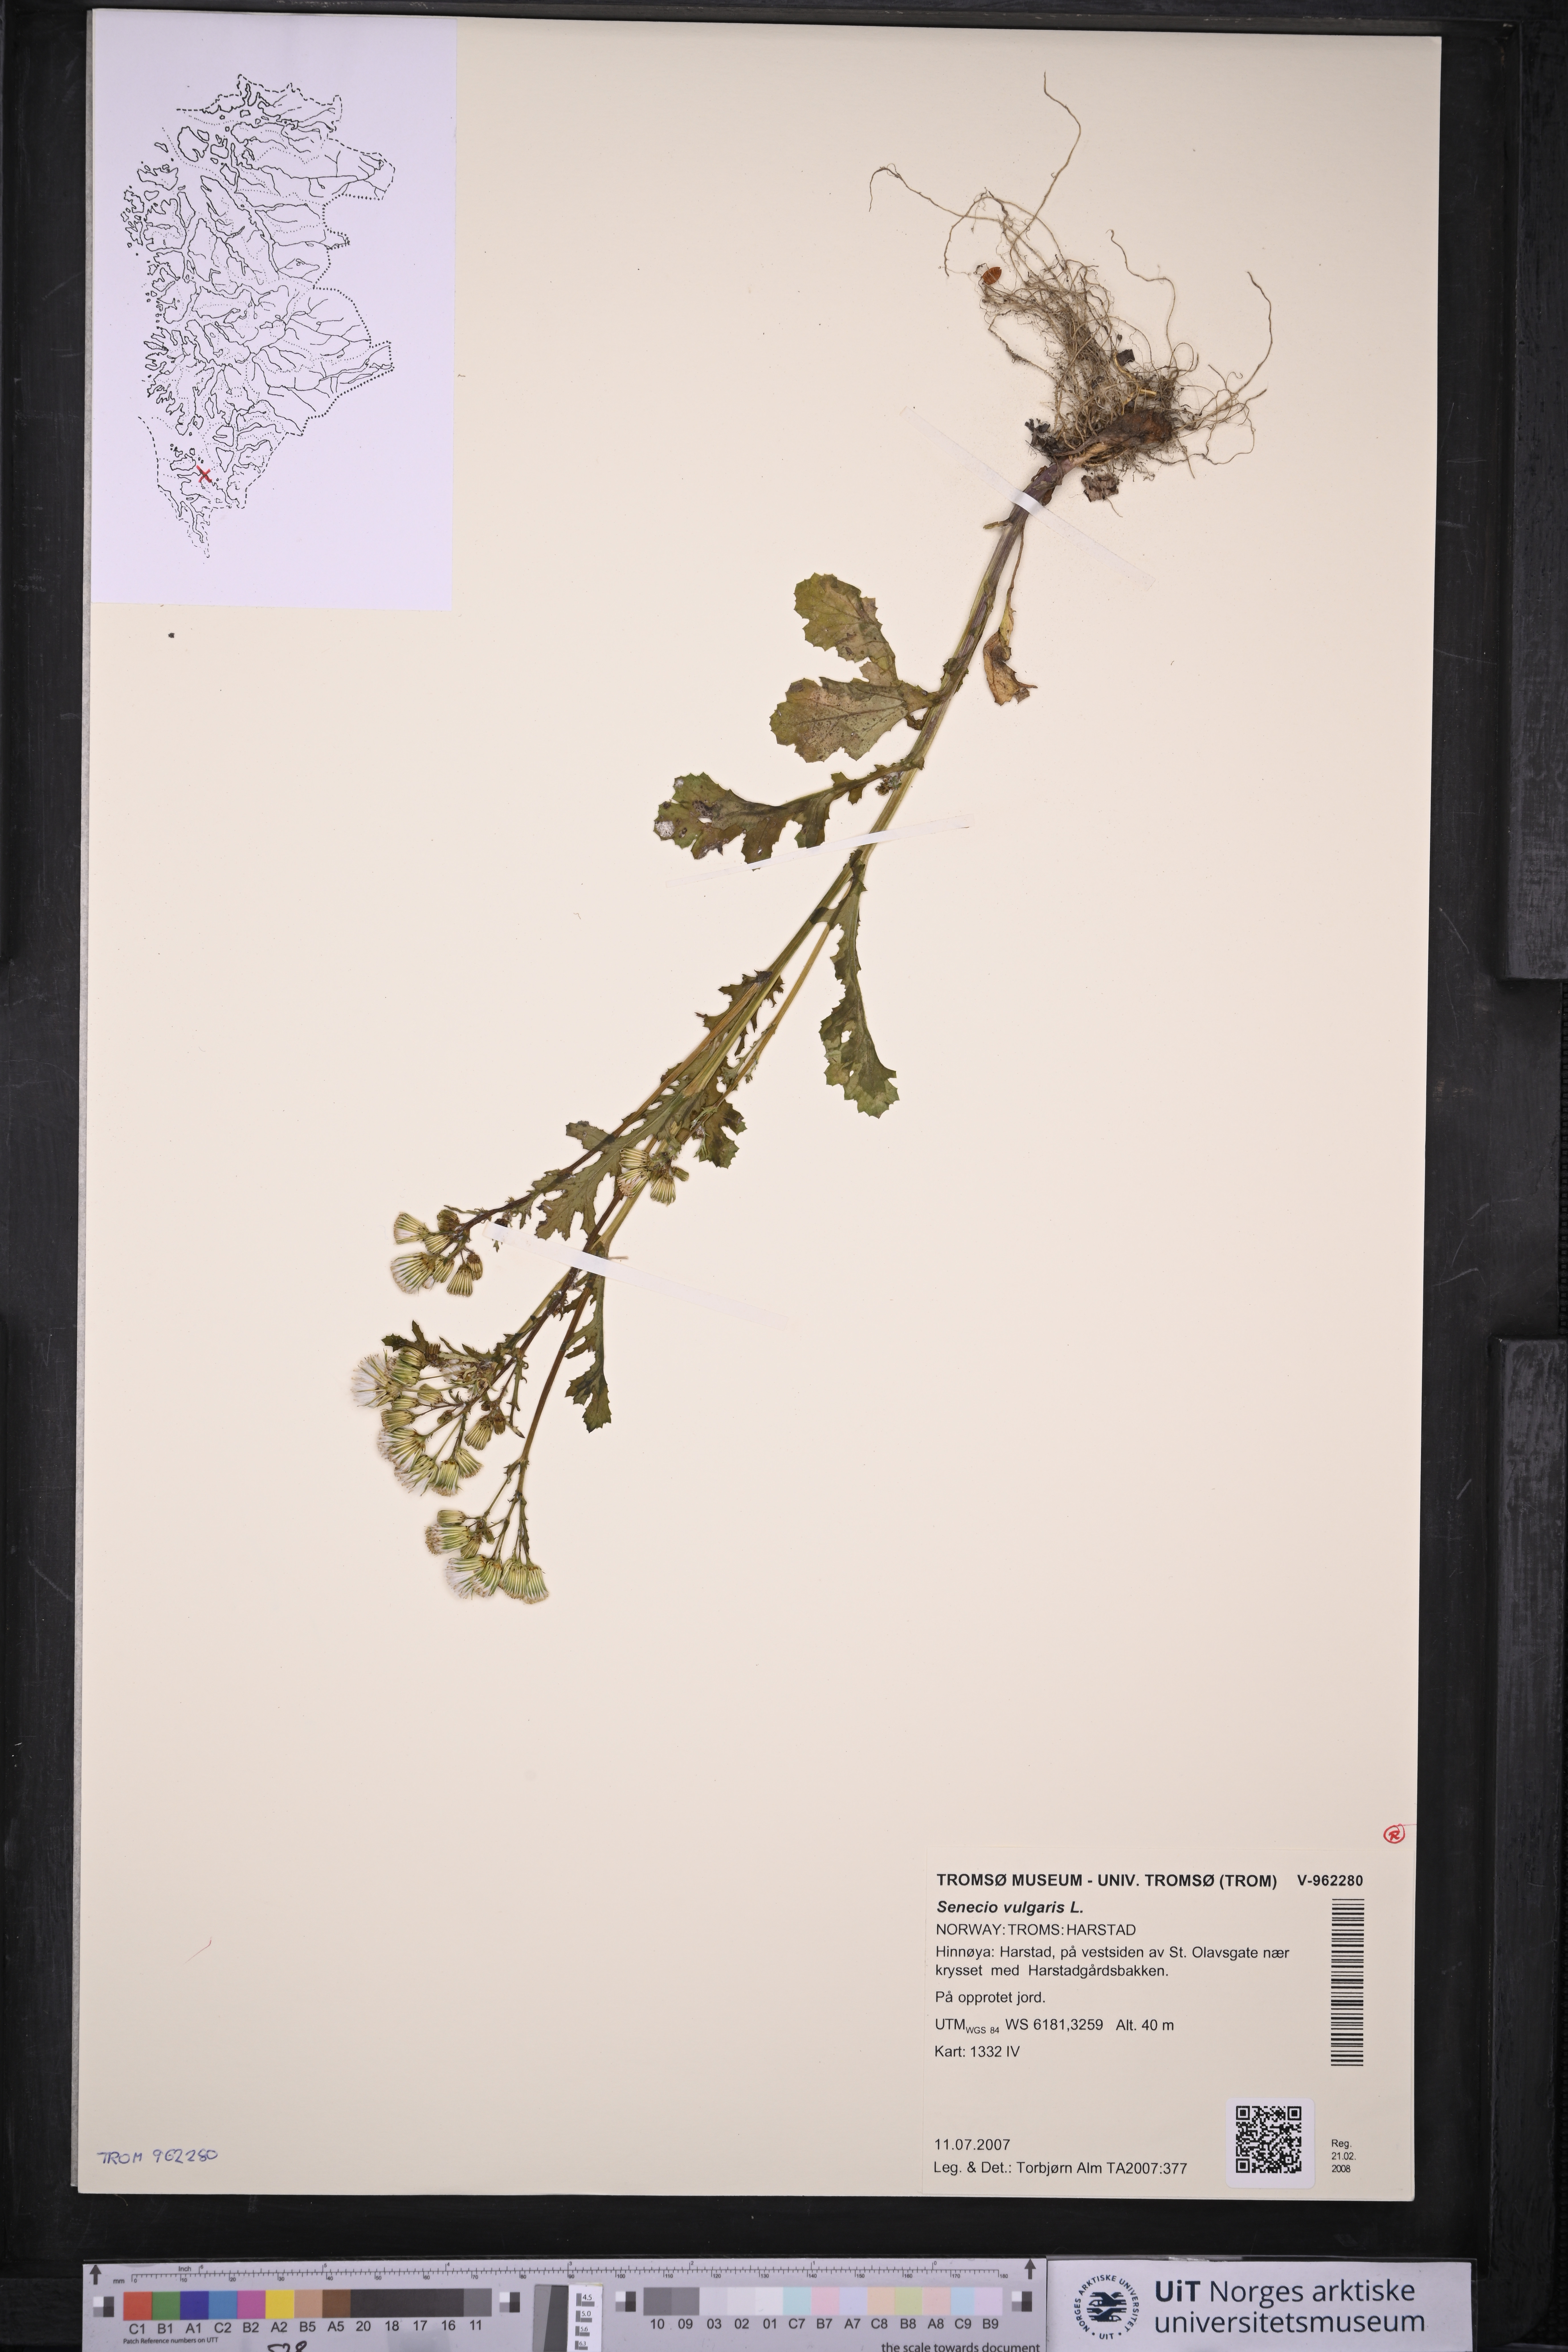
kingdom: Plantae
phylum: Tracheophyta
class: Magnoliopsida
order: Asterales
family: Asteraceae
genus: Senecio
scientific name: Senecio vulgaris
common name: Old-man-in-the-spring
